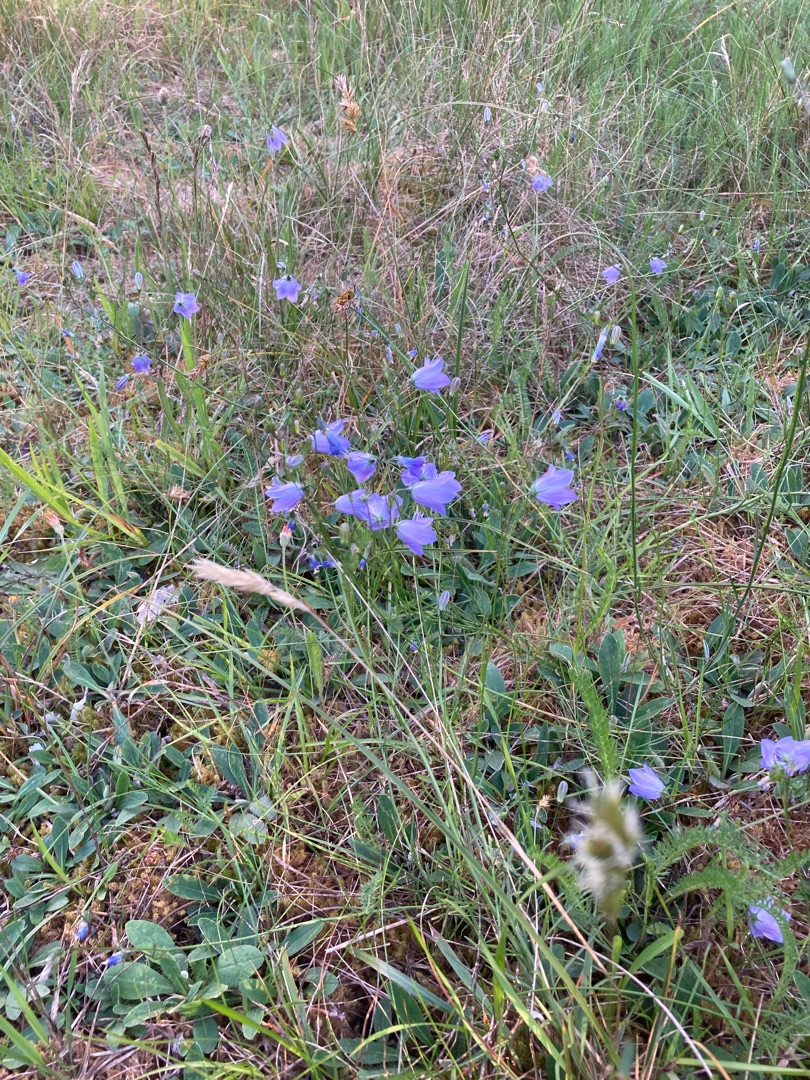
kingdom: Plantae
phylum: Tracheophyta
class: Magnoliopsida
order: Asterales
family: Campanulaceae
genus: Campanula
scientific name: Campanula rotundifolia
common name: Liden klokke
